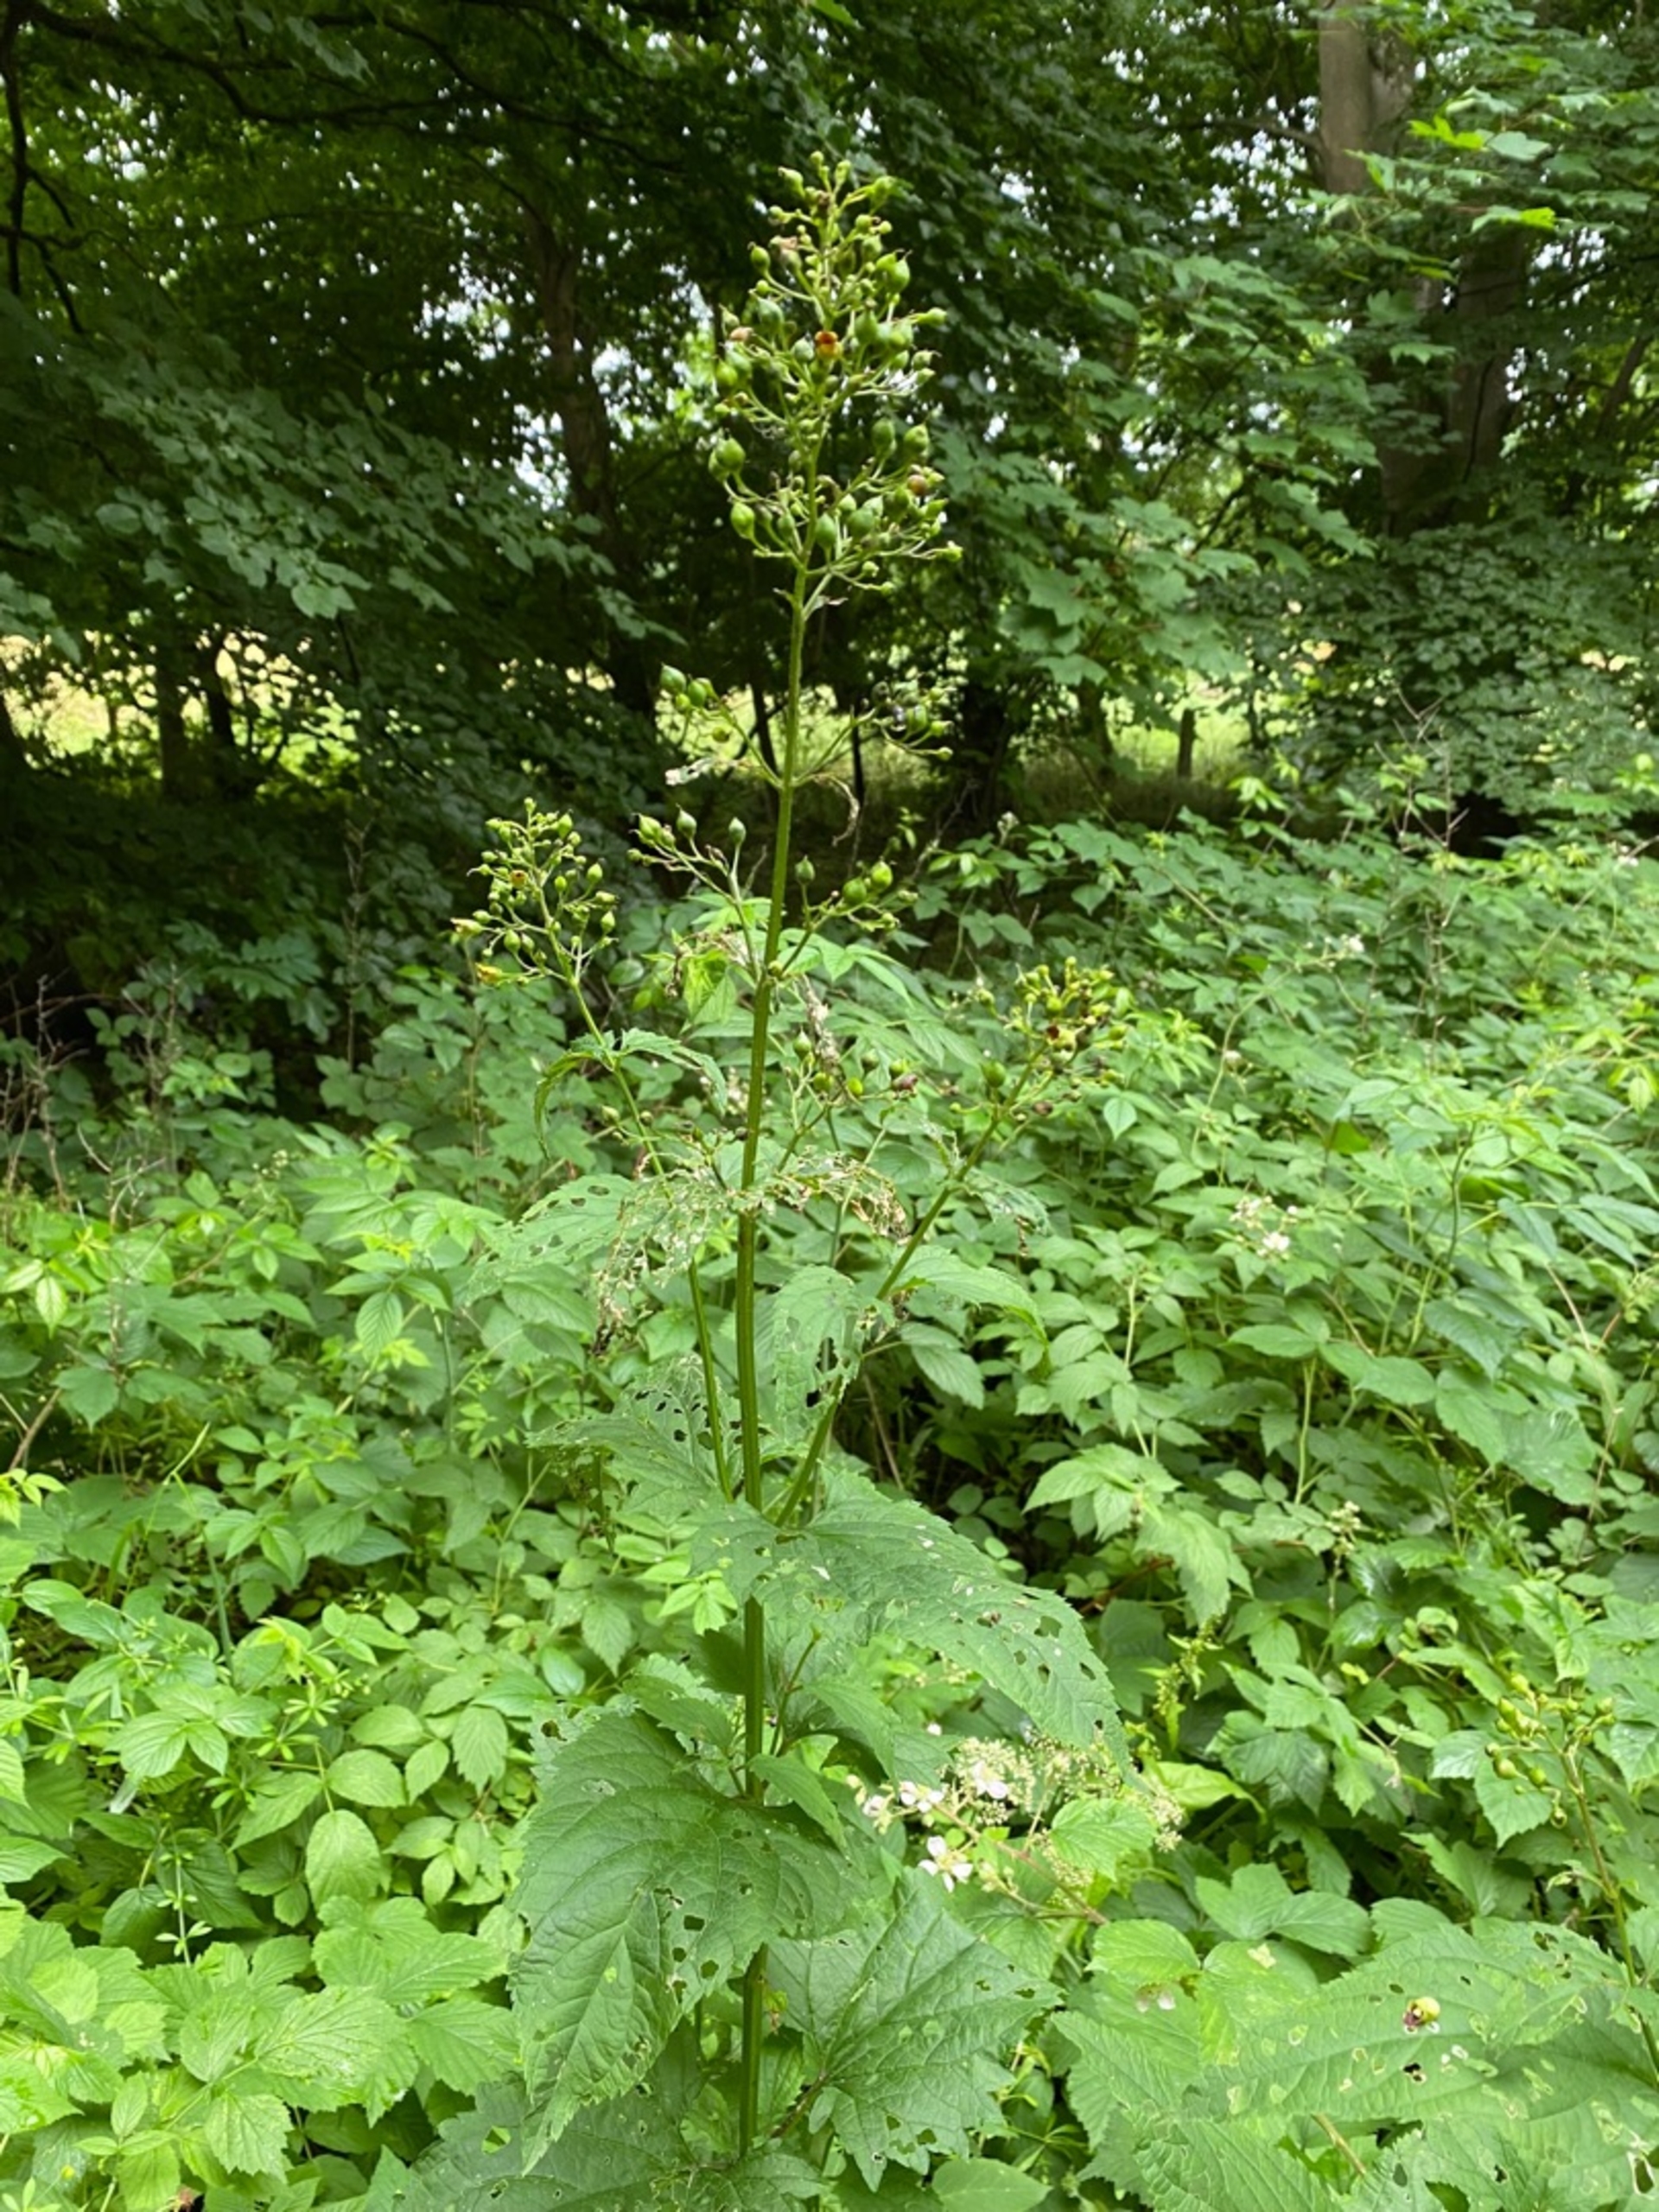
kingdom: Plantae
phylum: Tracheophyta
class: Magnoliopsida
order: Lamiales
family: Scrophulariaceae
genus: Scrophularia
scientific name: Scrophularia nodosa
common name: Knoldet brunrod
